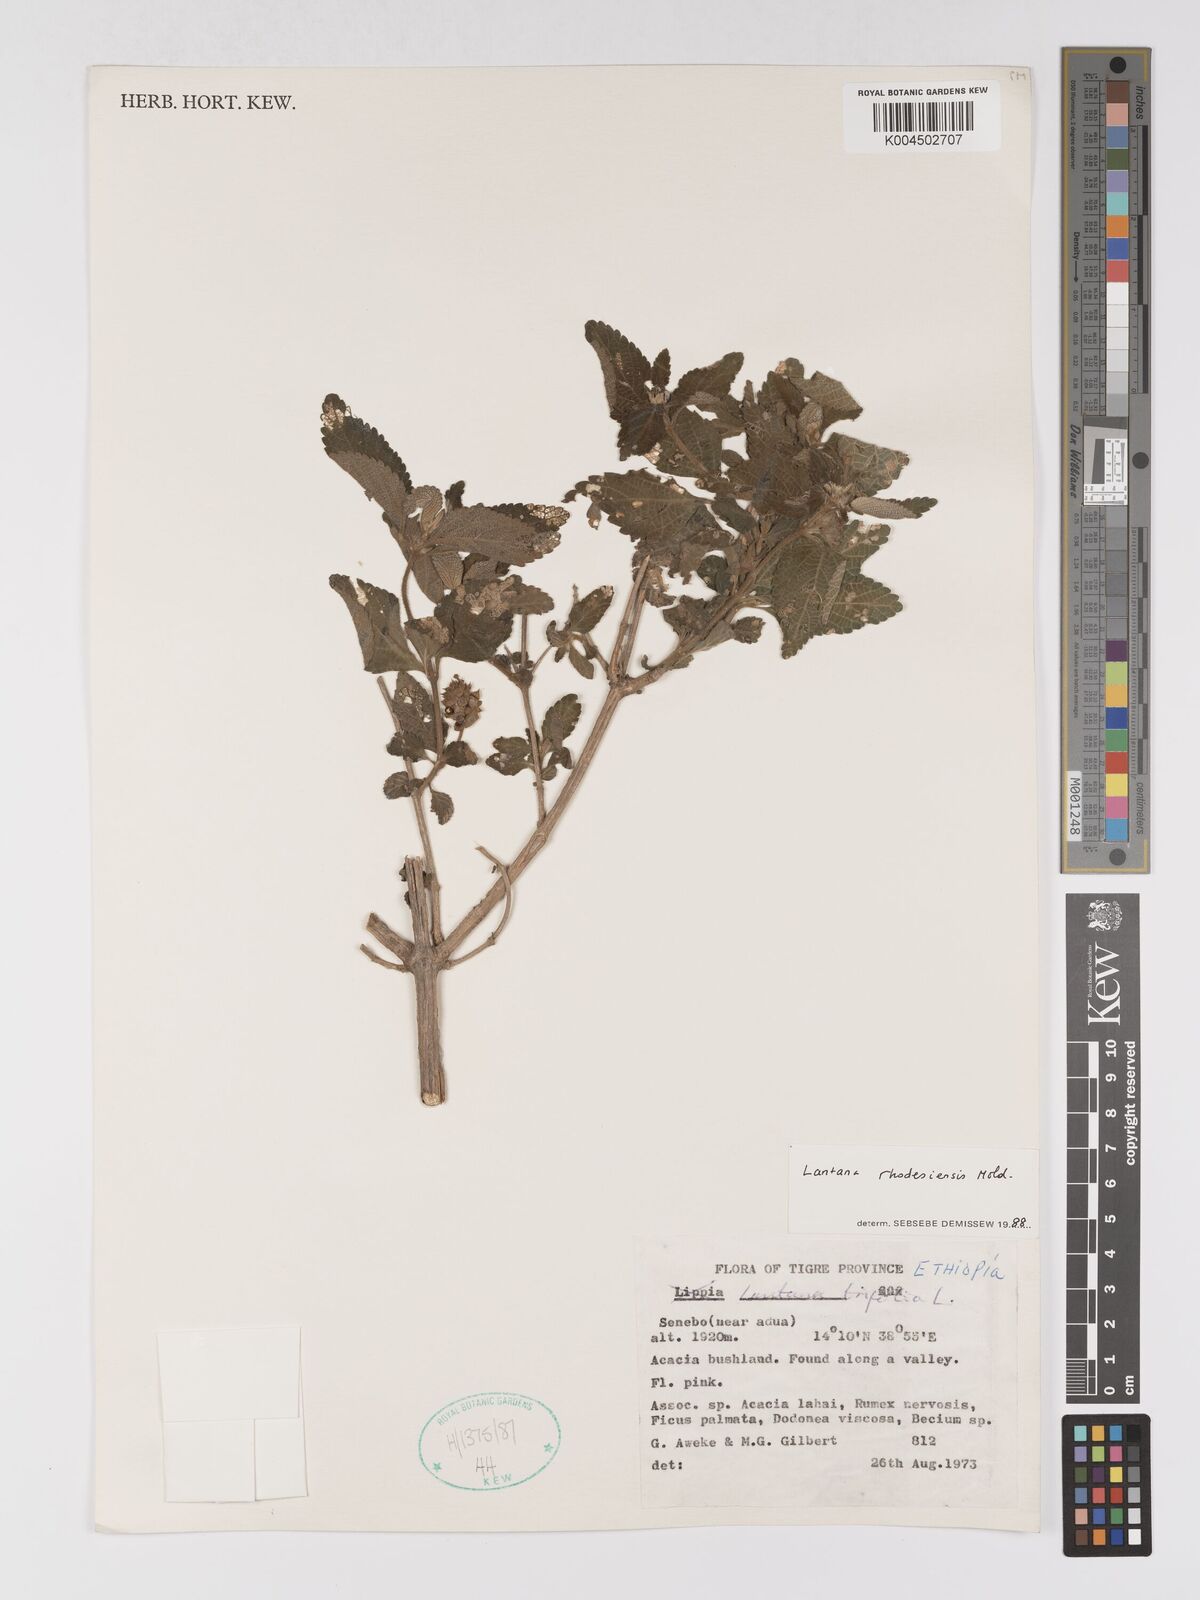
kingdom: Plantae
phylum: Tracheophyta
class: Magnoliopsida
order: Lamiales
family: Verbenaceae
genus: Lantana
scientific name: Lantana ukambensis
